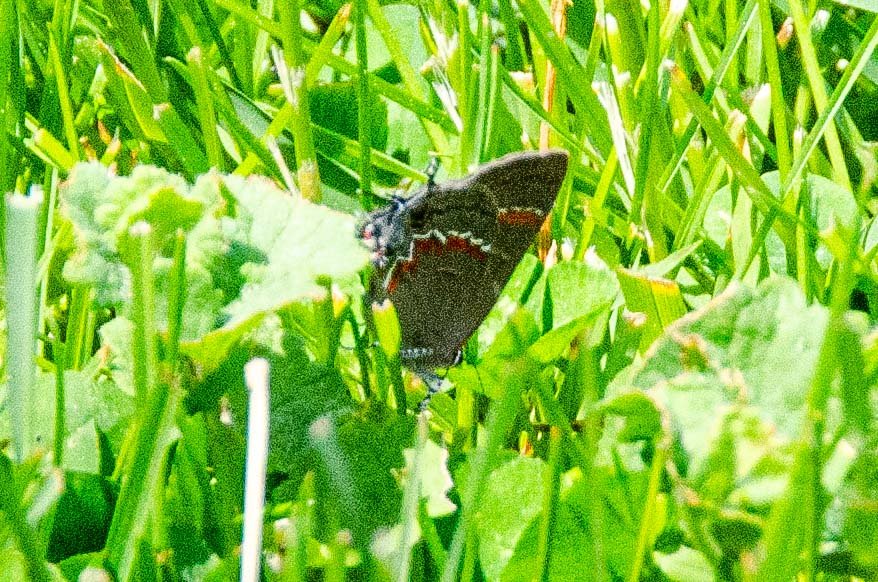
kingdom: Animalia
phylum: Arthropoda
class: Insecta
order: Lepidoptera
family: Lycaenidae
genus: Calycopis
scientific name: Calycopis cecrops
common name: Red-banded Hairstreak
